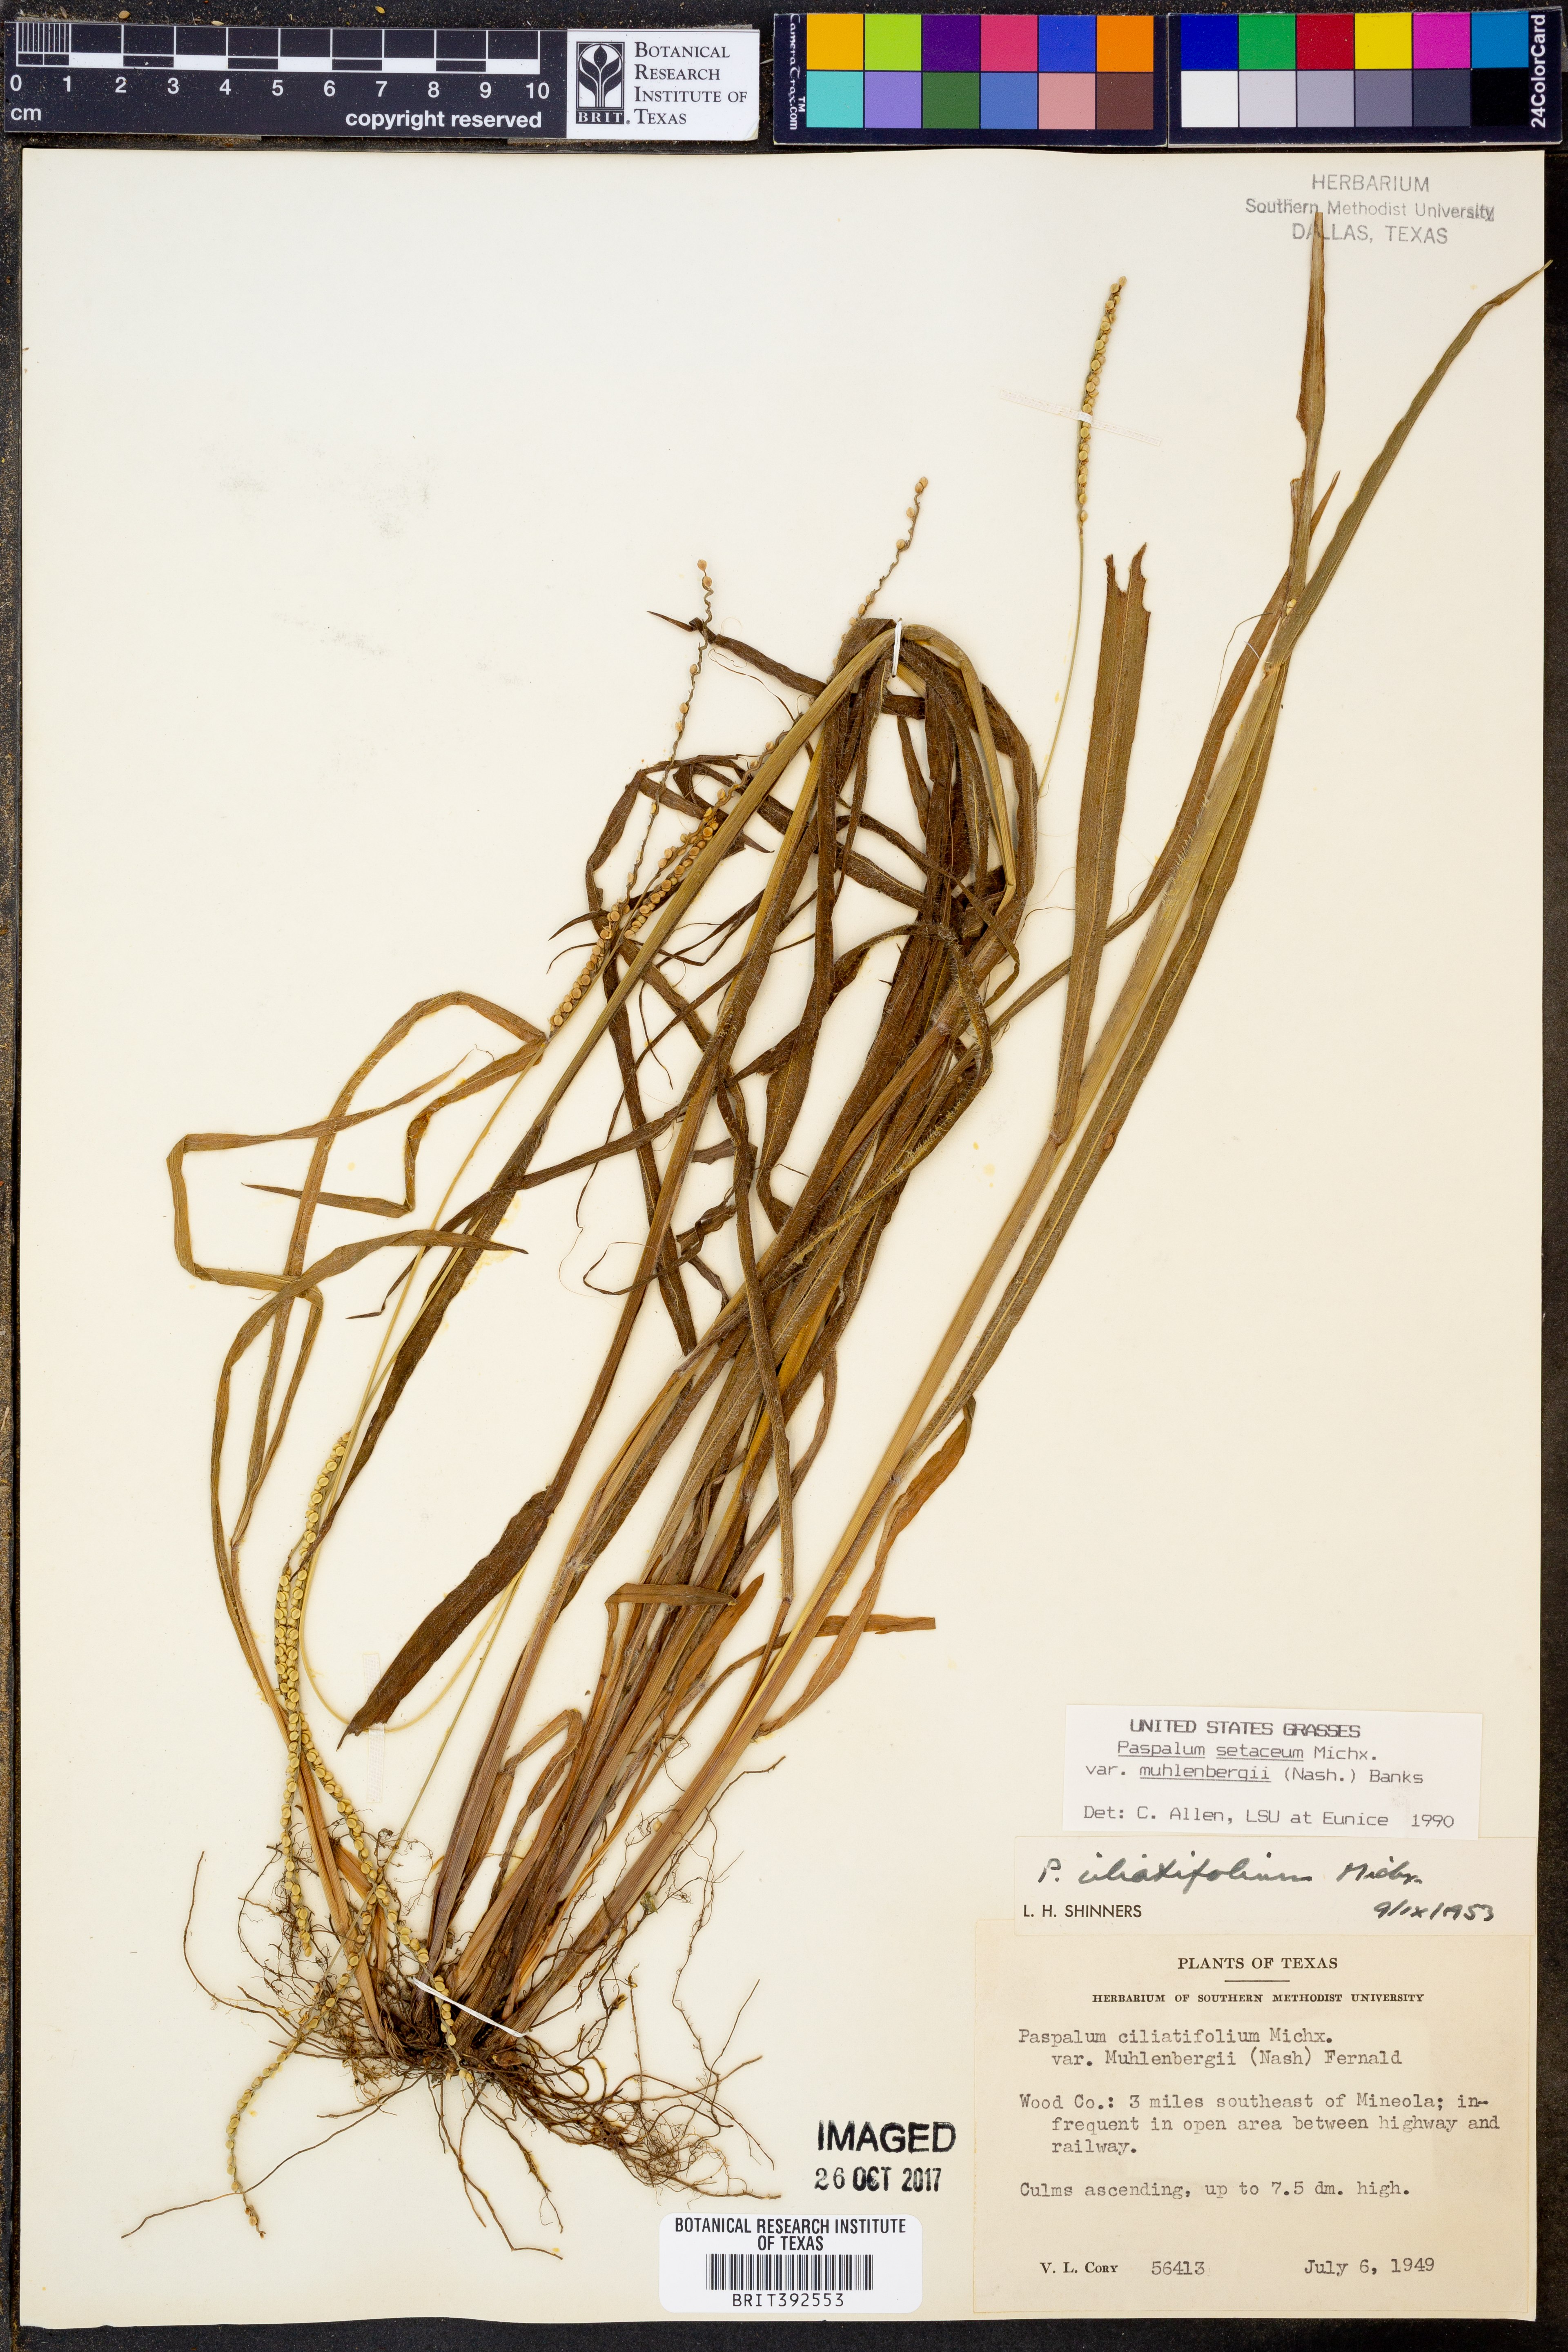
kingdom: Plantae
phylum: Tracheophyta
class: Liliopsida
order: Poales
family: Poaceae
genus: Paspalum
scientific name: Paspalum setaceum
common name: Slender paspalum
